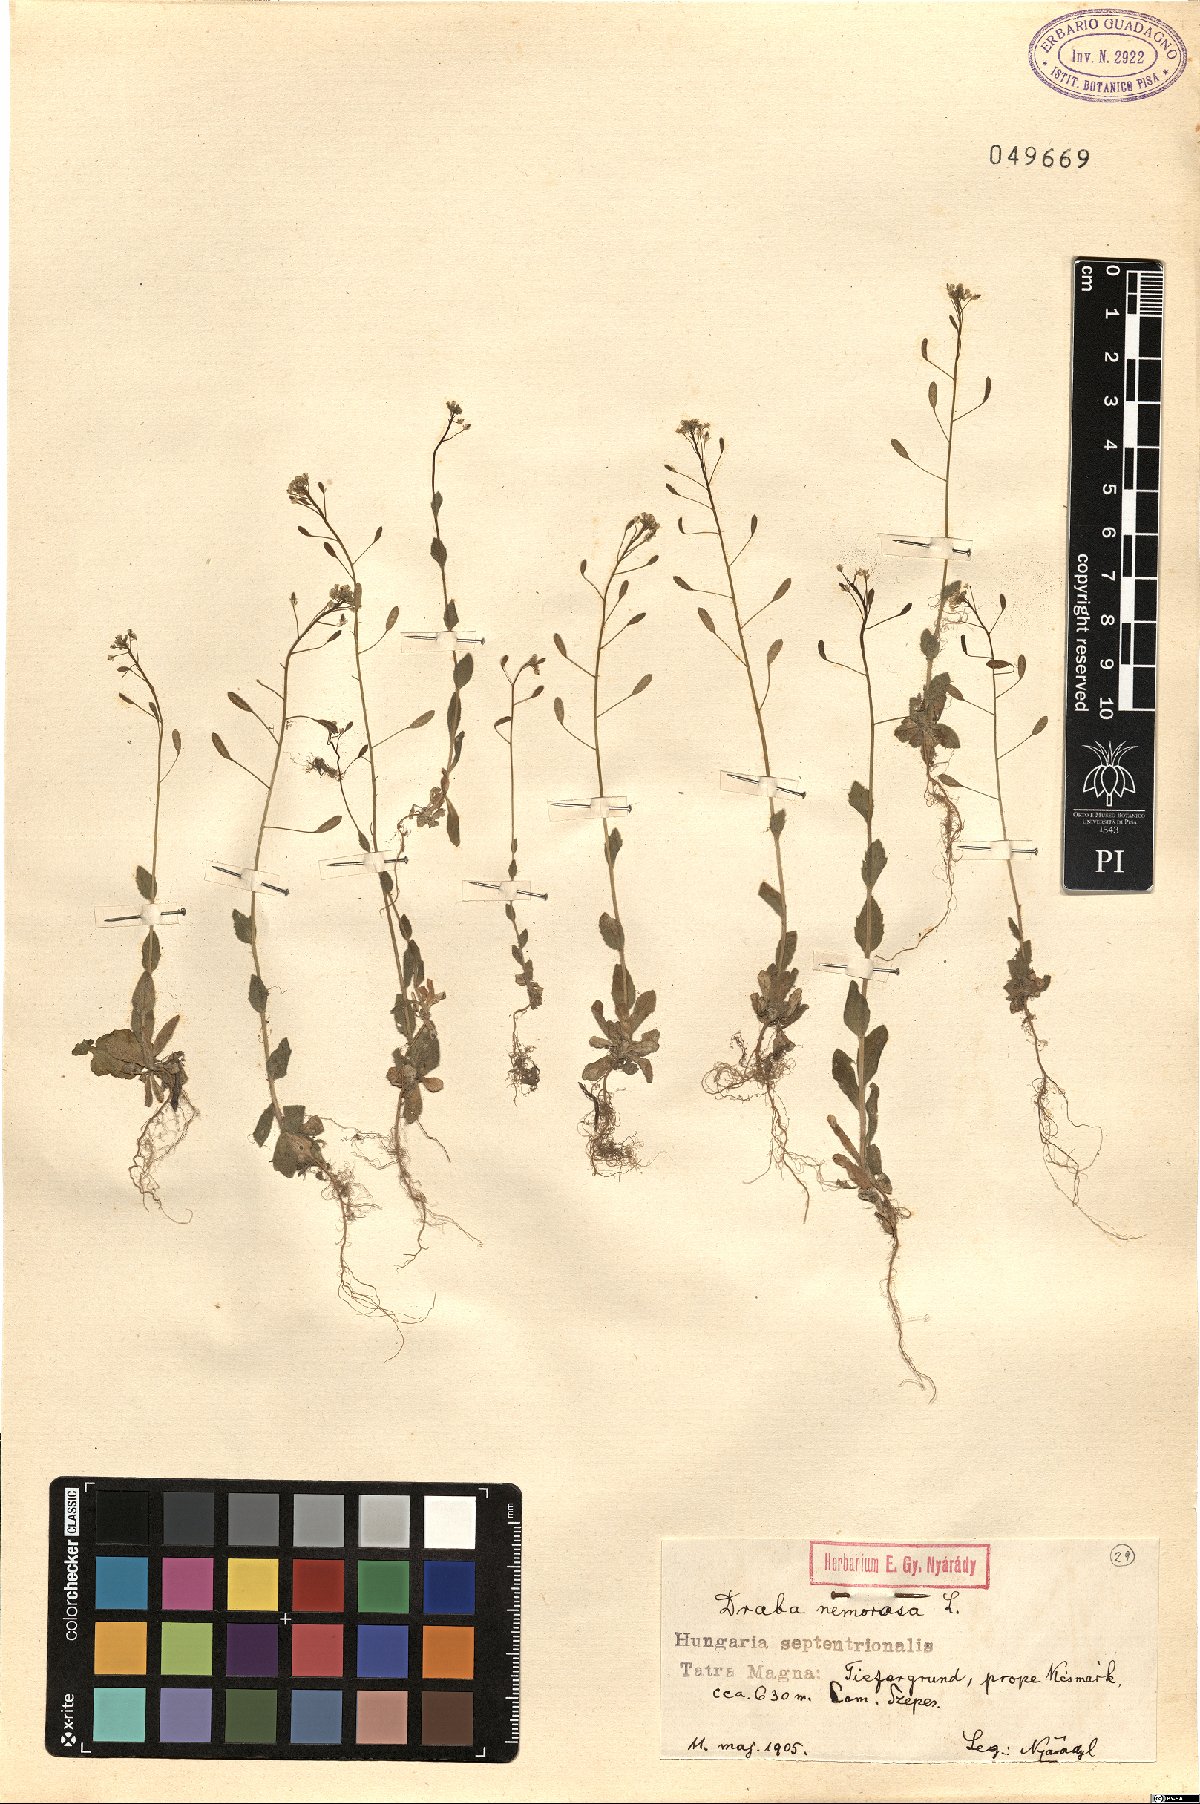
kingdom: Plantae
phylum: Tracheophyta
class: Magnoliopsida
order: Brassicales
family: Brassicaceae
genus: Draba
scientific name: Draba nemorosa
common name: Wood whitlow-grass
